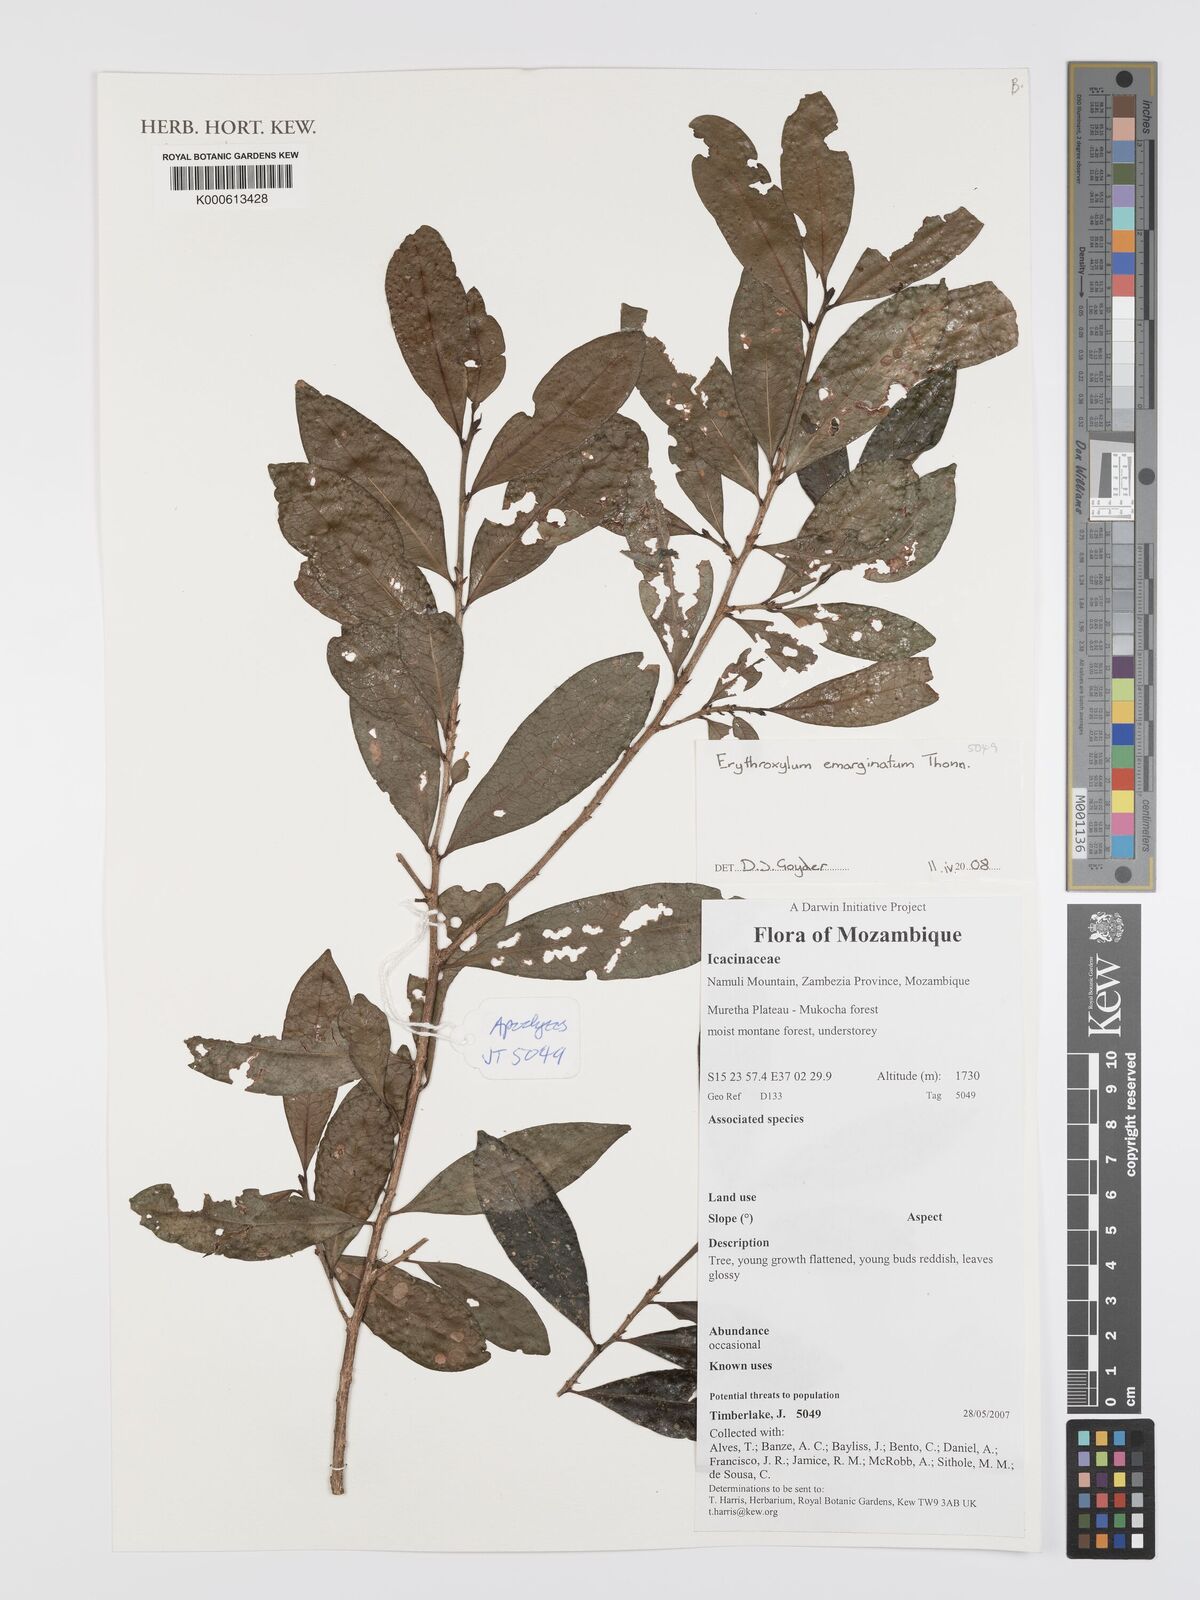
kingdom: Plantae
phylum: Tracheophyta
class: Magnoliopsida
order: Malpighiales
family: Erythroxylaceae
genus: Erythroxylum
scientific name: Erythroxylum emarginatum
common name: African coca-tree
